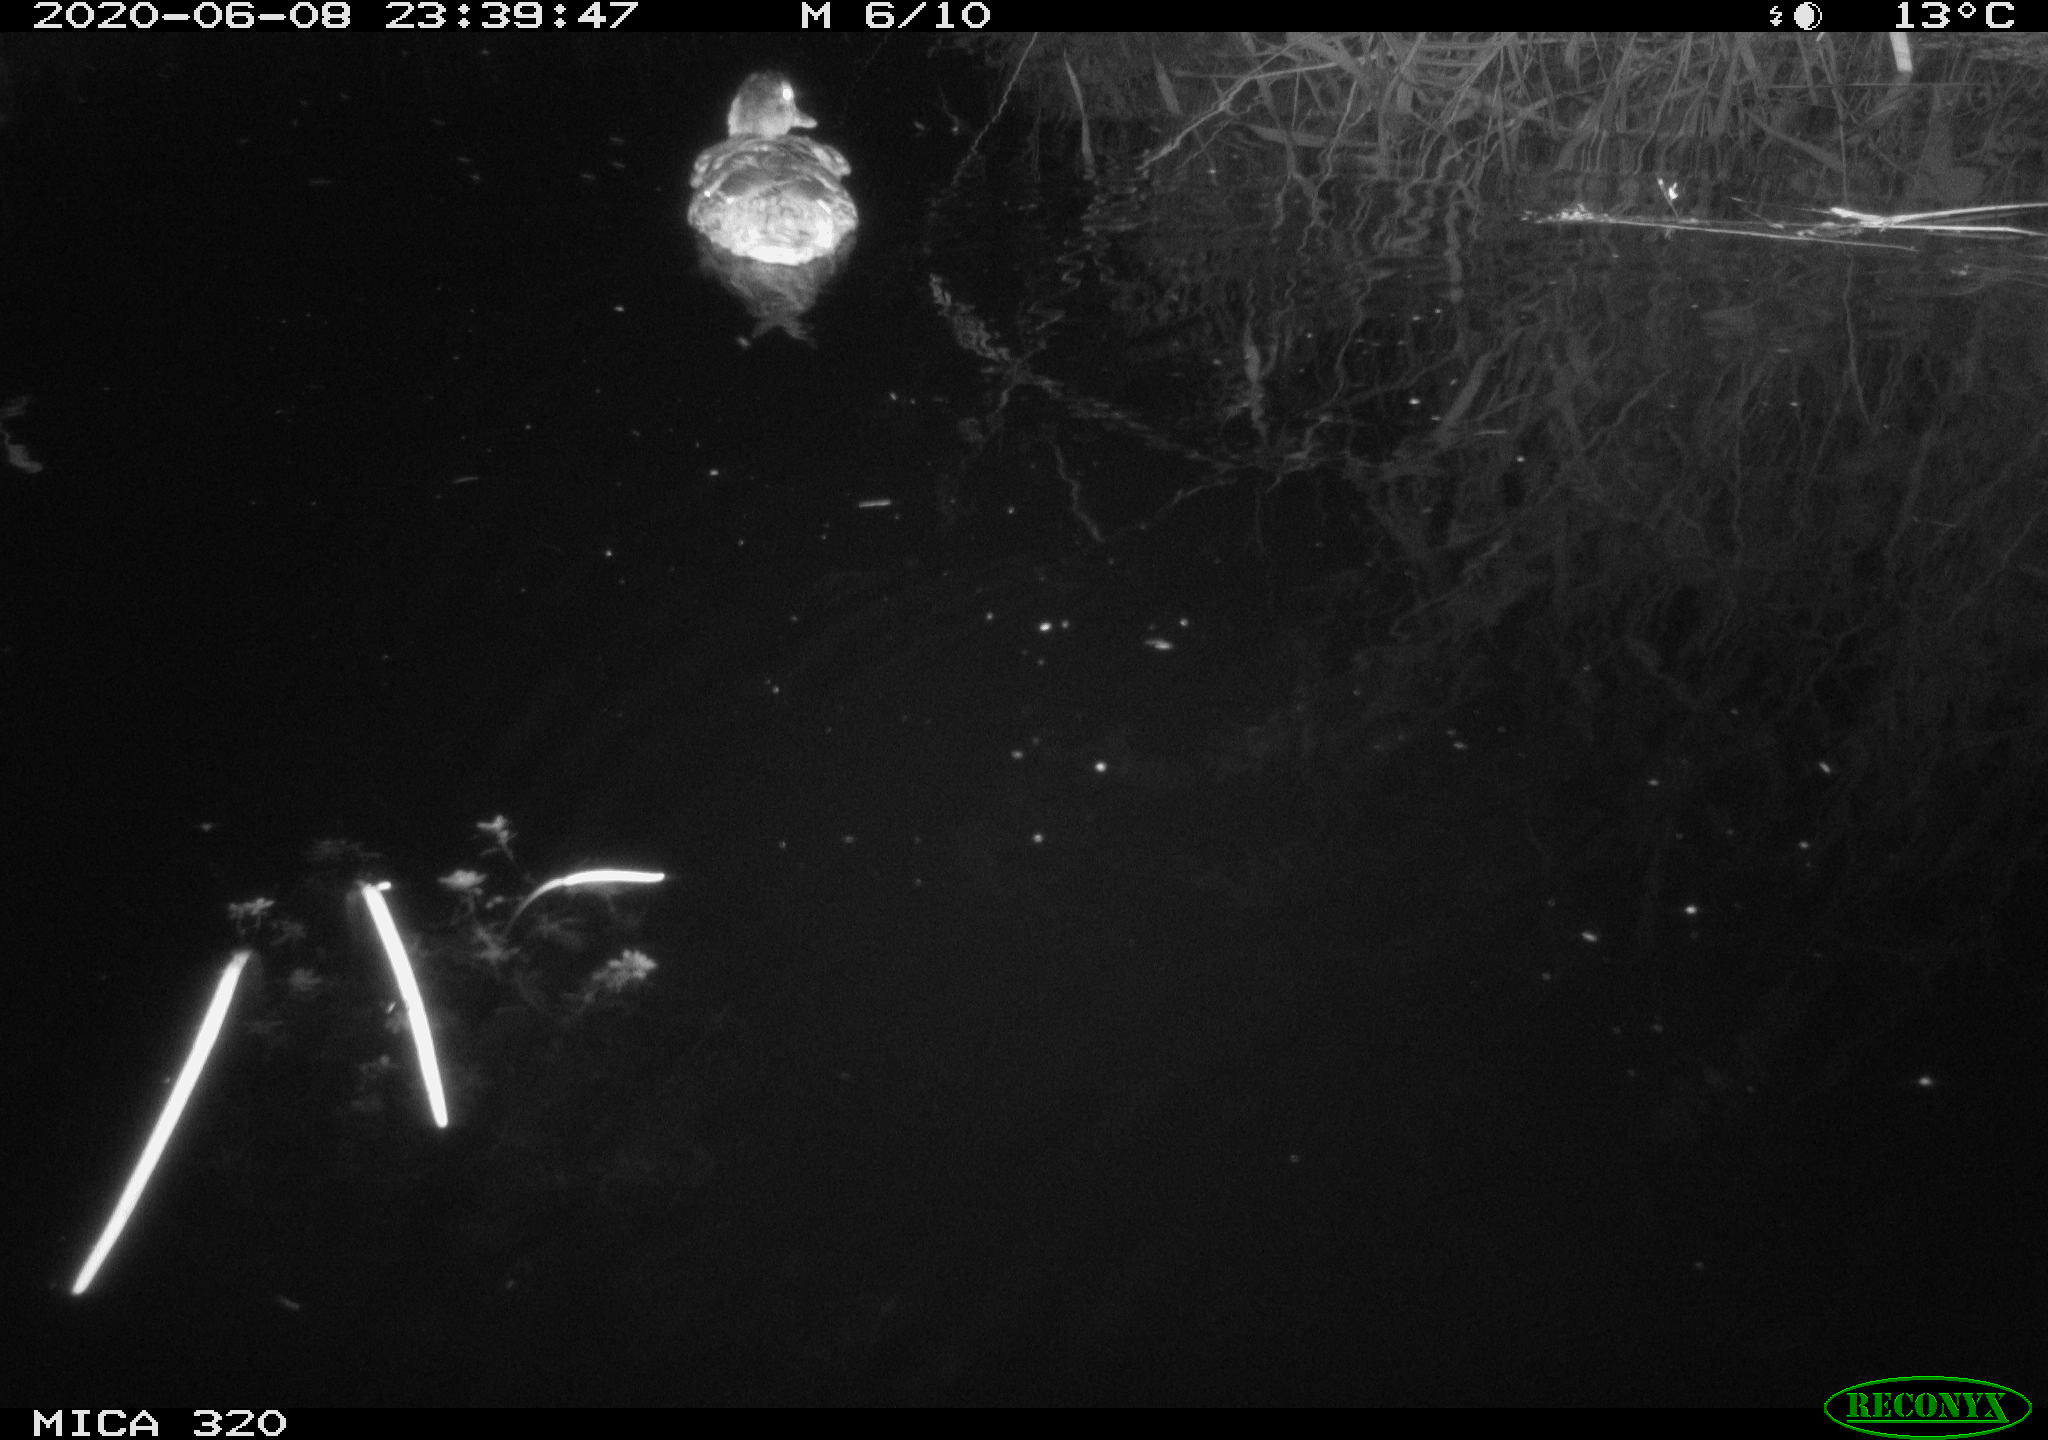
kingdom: Animalia
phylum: Chordata
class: Aves
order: Anseriformes
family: Anatidae
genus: Anas
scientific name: Anas platyrhynchos
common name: Mallard
